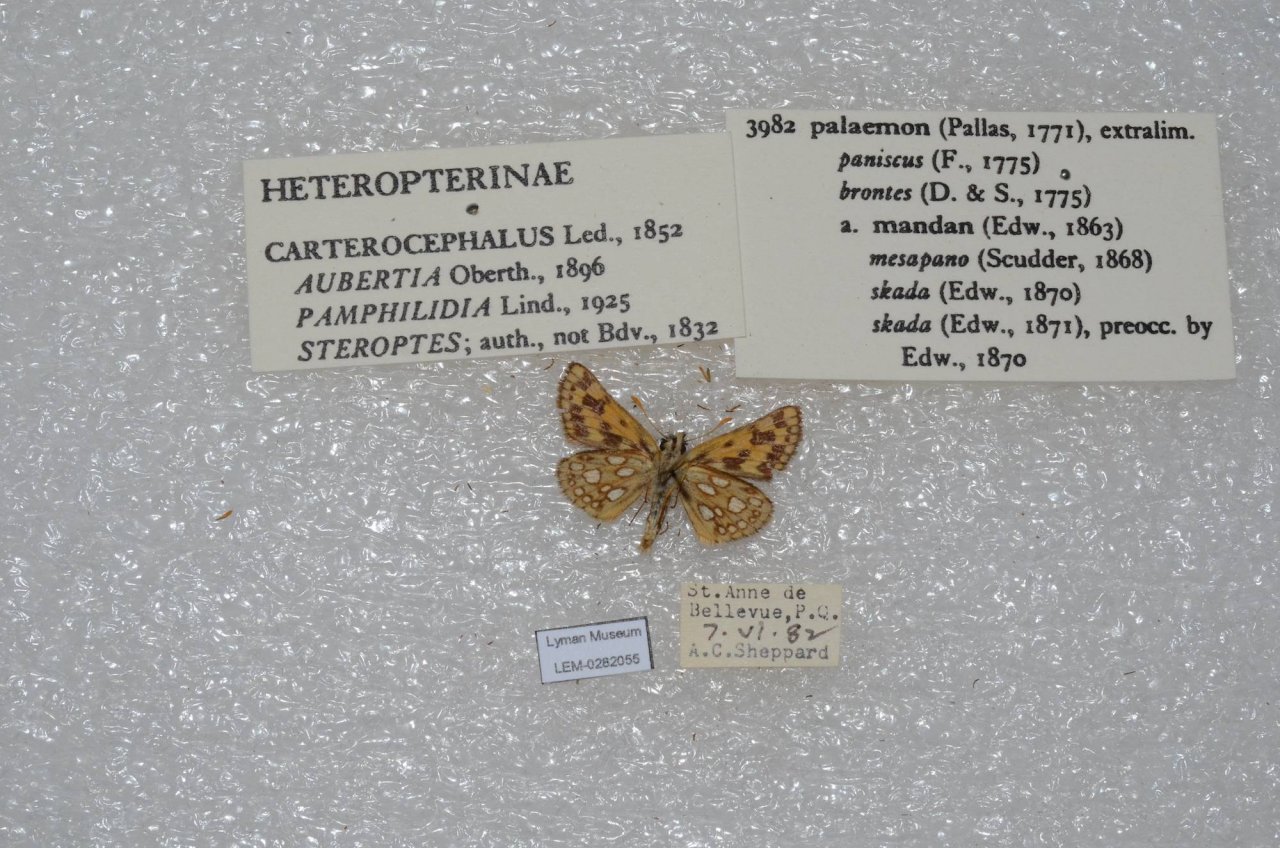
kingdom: Animalia
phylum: Arthropoda
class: Insecta
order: Lepidoptera
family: Hesperiidae
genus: Carterocephalus
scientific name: Carterocephalus palaemon
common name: Chequered Skipper
